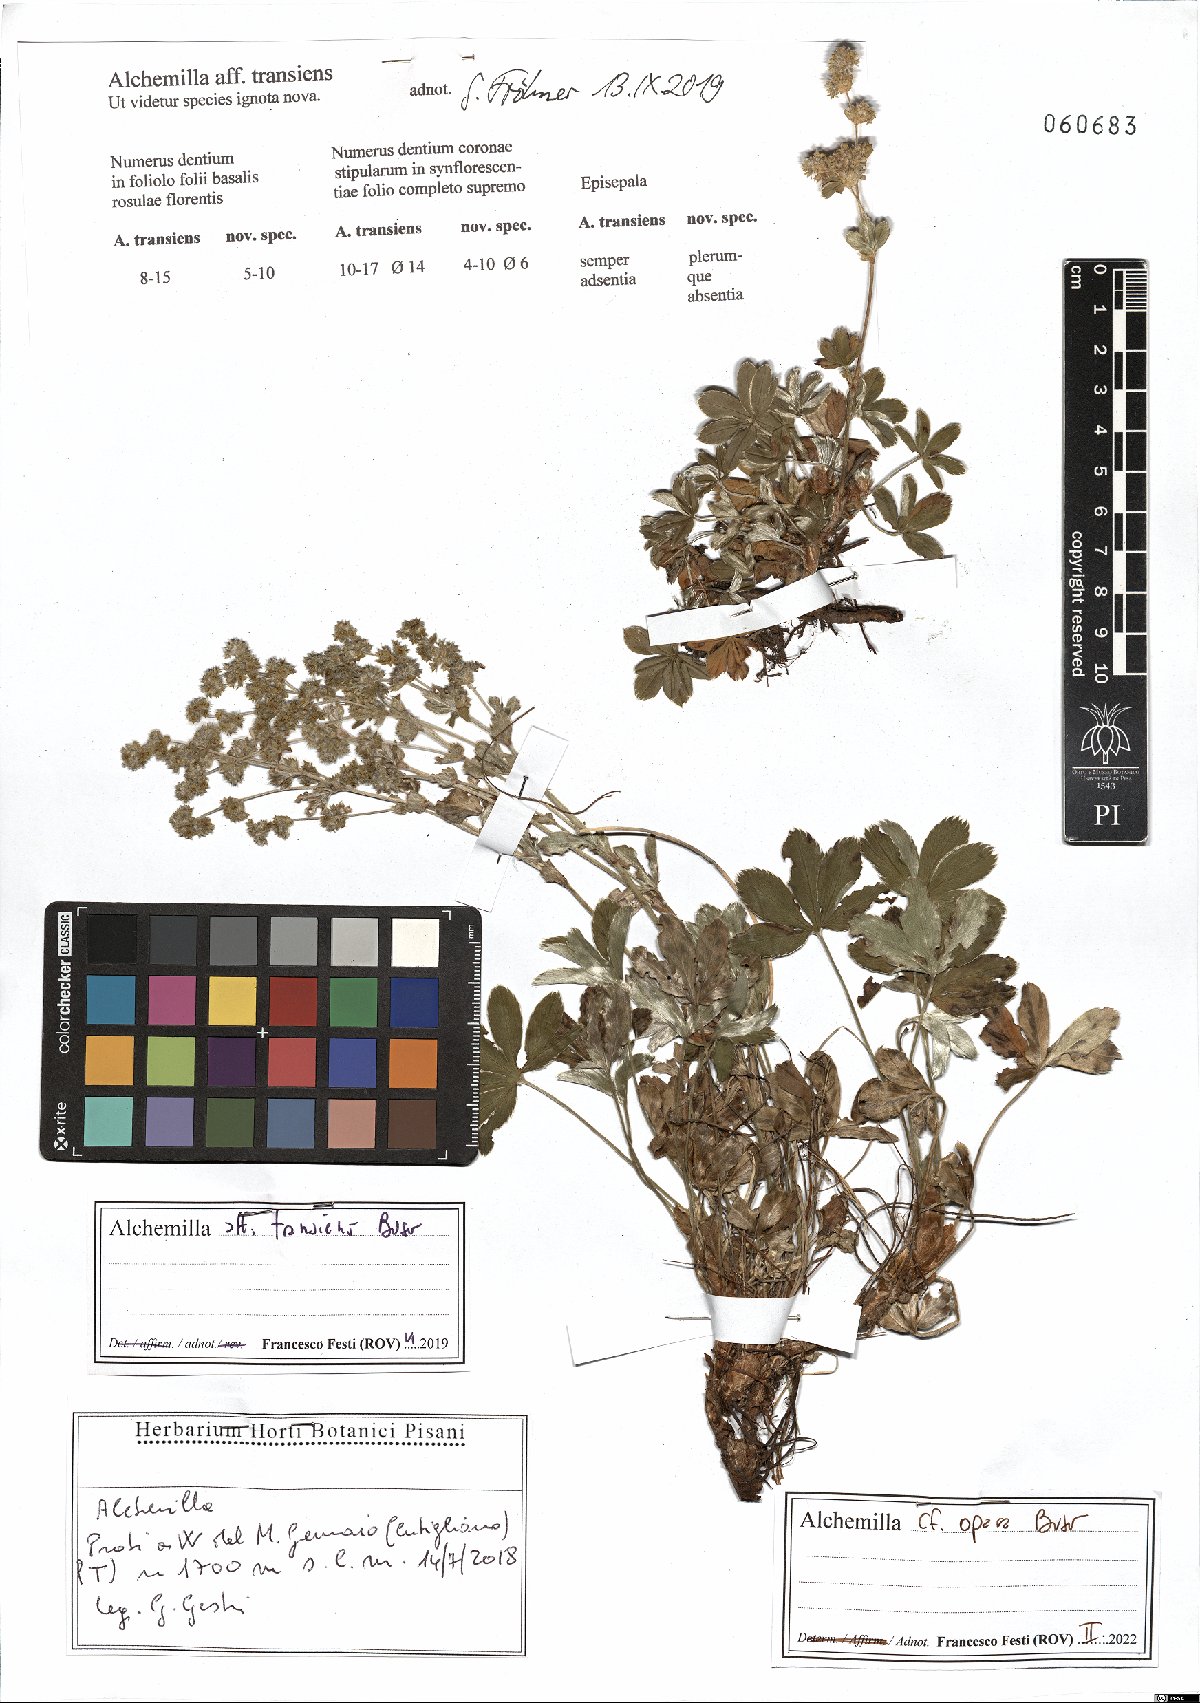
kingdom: Plantae
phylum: Tracheophyta
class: Magnoliopsida
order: Rosales
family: Rosaceae
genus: Alchemilla
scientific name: Alchemilla opaca
